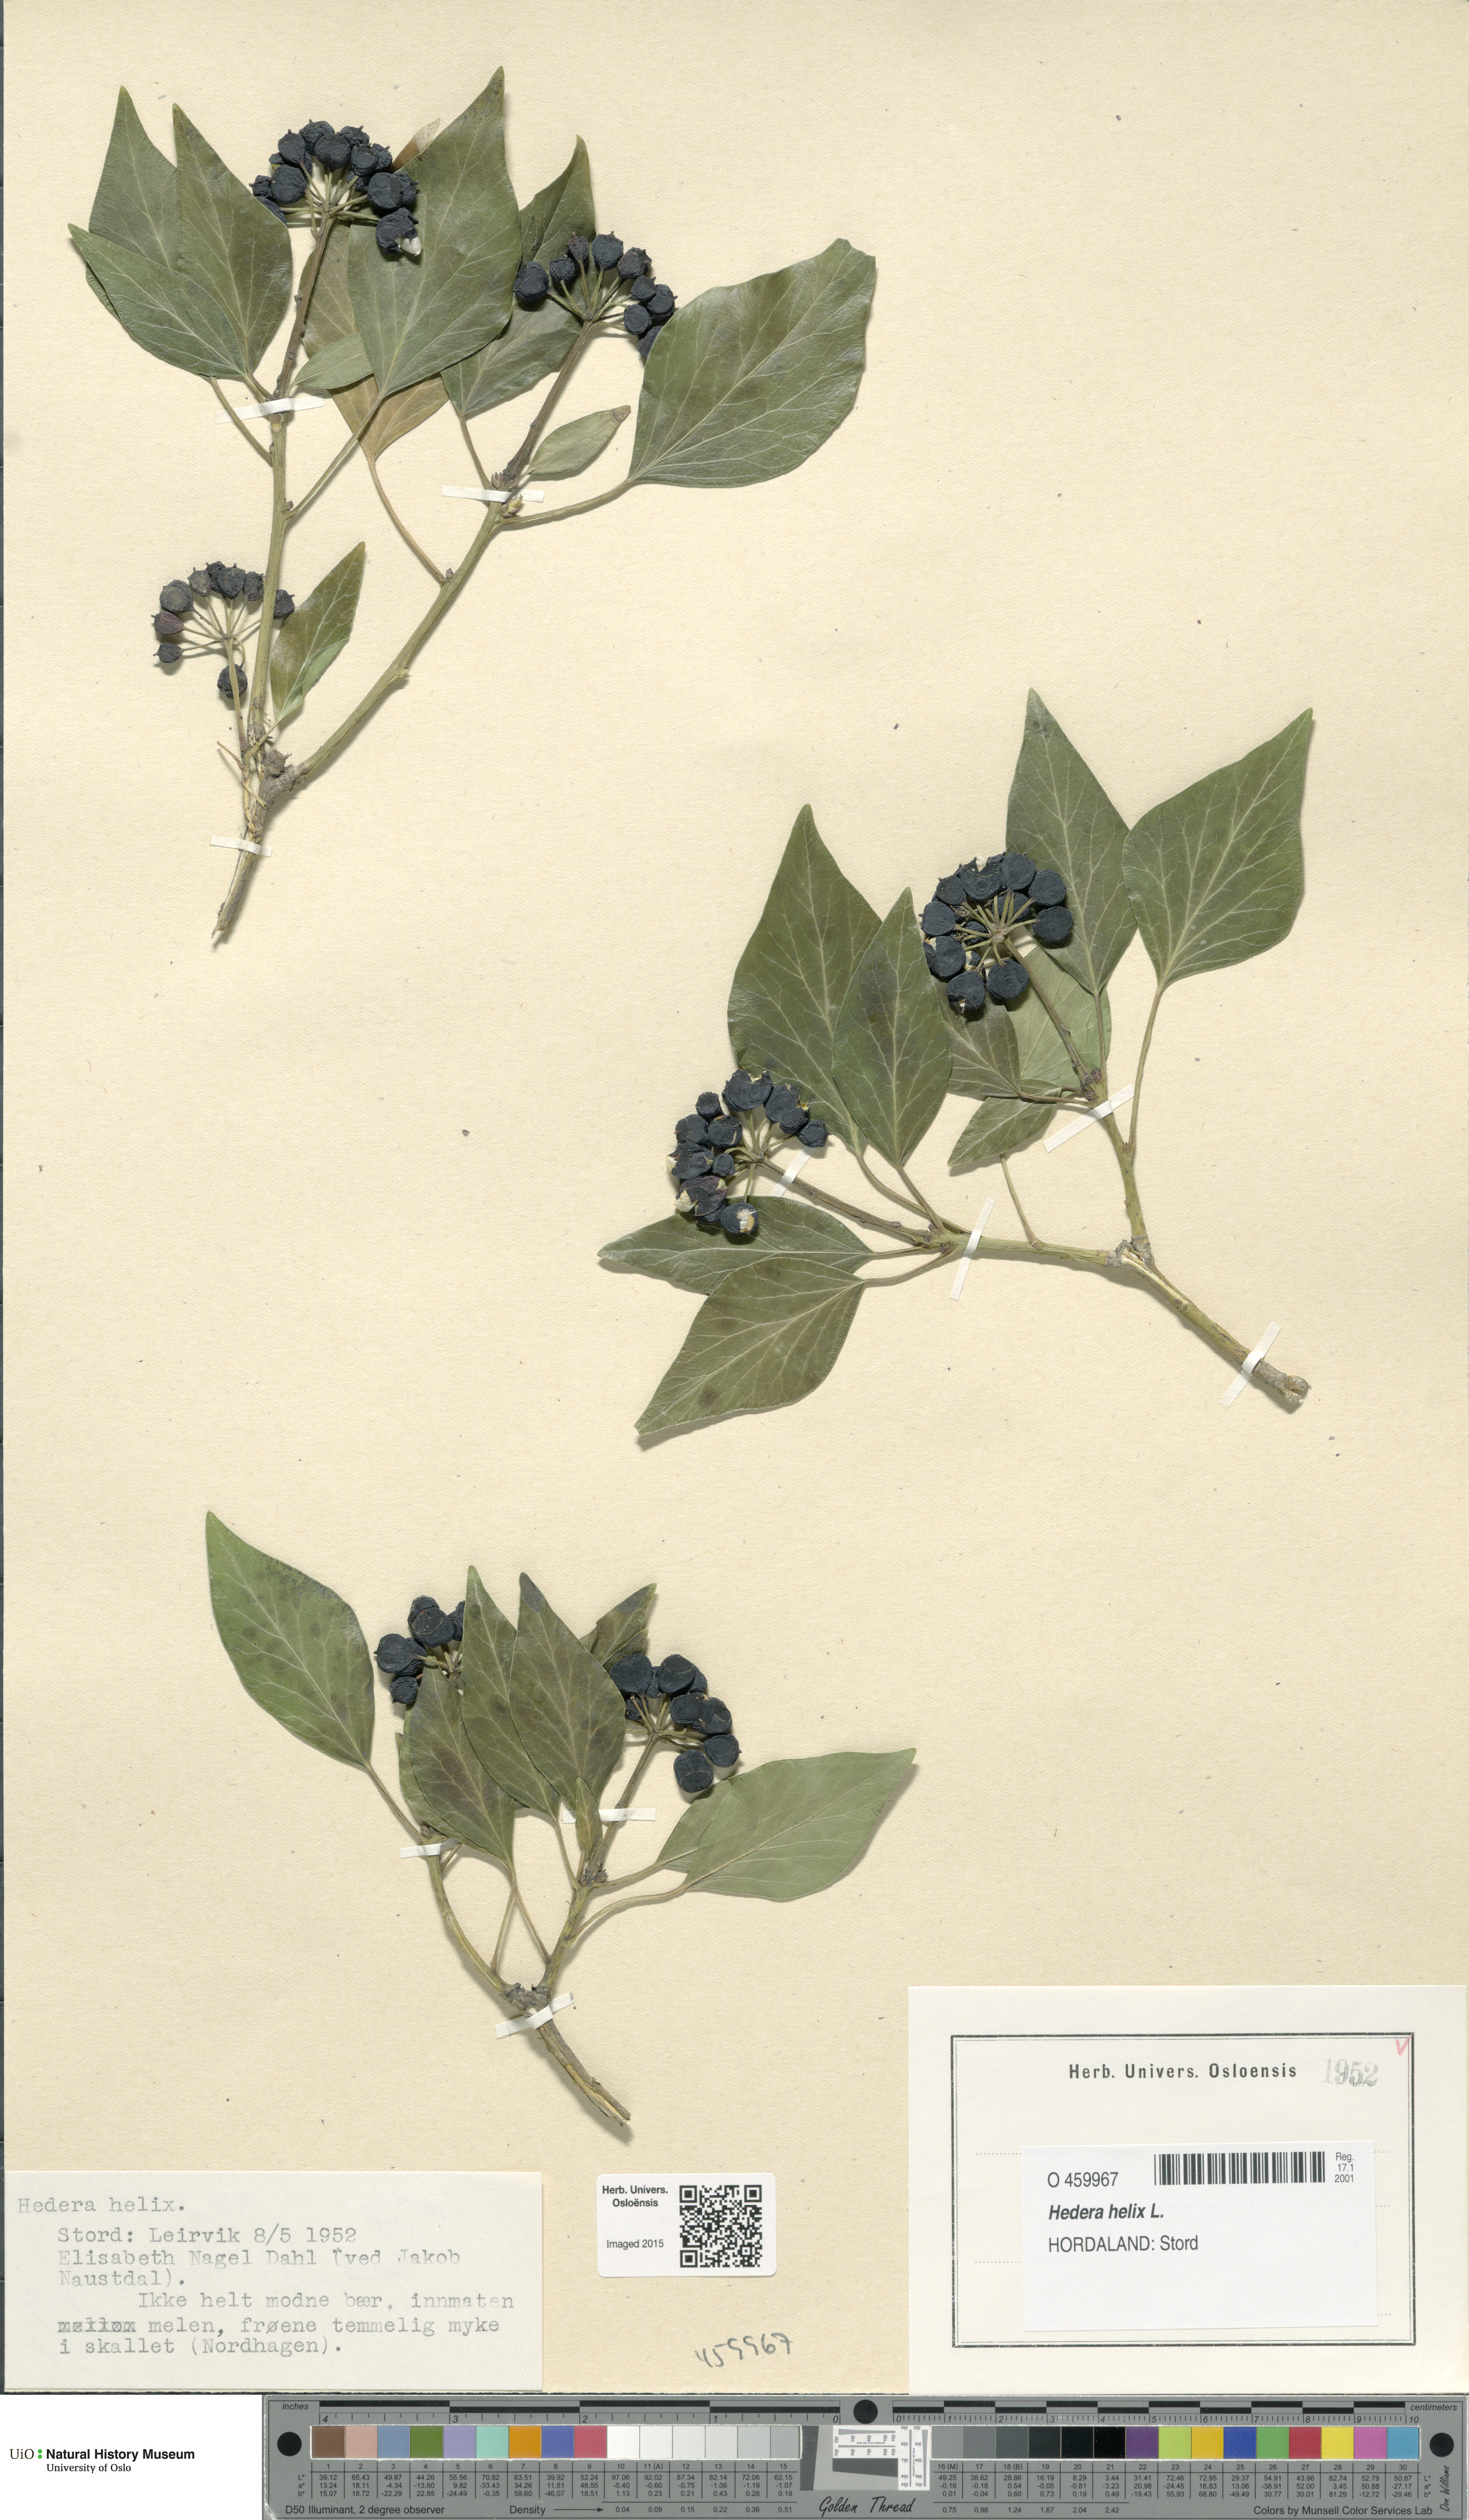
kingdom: Plantae
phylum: Tracheophyta
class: Magnoliopsida
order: Apiales
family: Araliaceae
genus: Hedera
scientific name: Hedera helix
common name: Ivy
